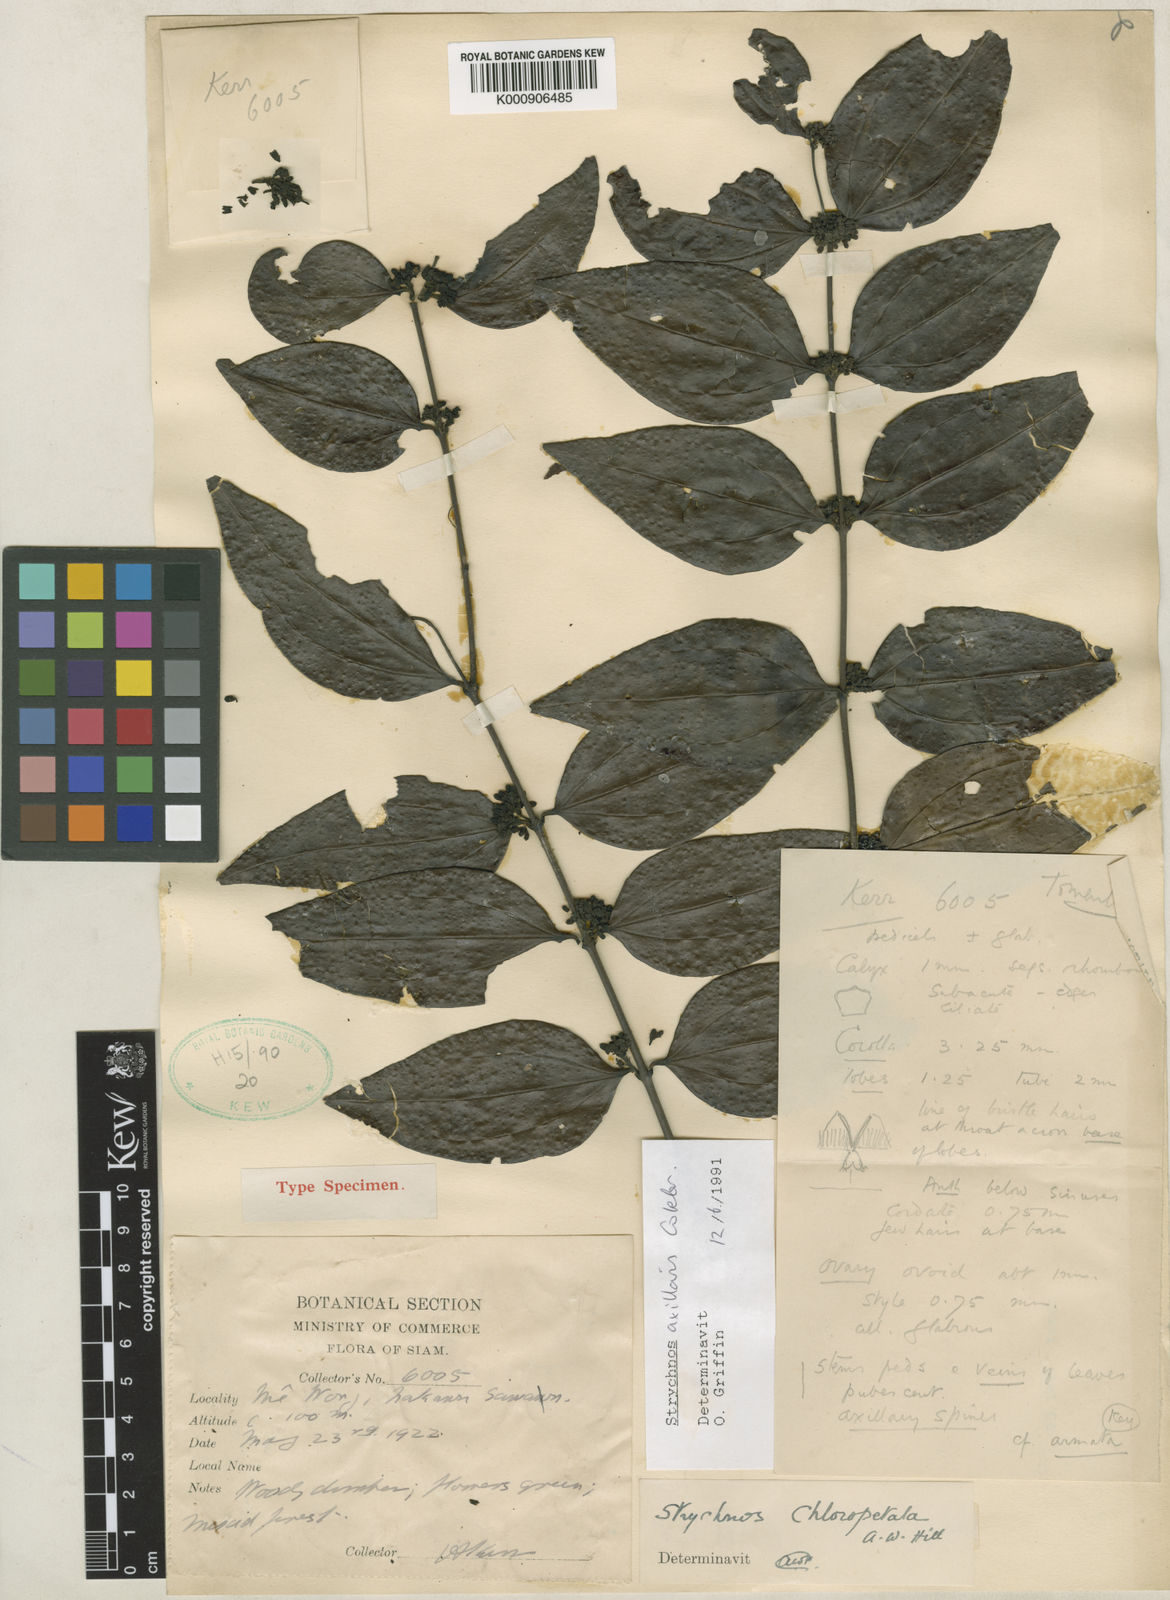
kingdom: Plantae
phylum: Tracheophyta
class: Magnoliopsida
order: Gentianales
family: Loganiaceae
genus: Strychnos
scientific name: Strychnos axillaris
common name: Strychninebush
